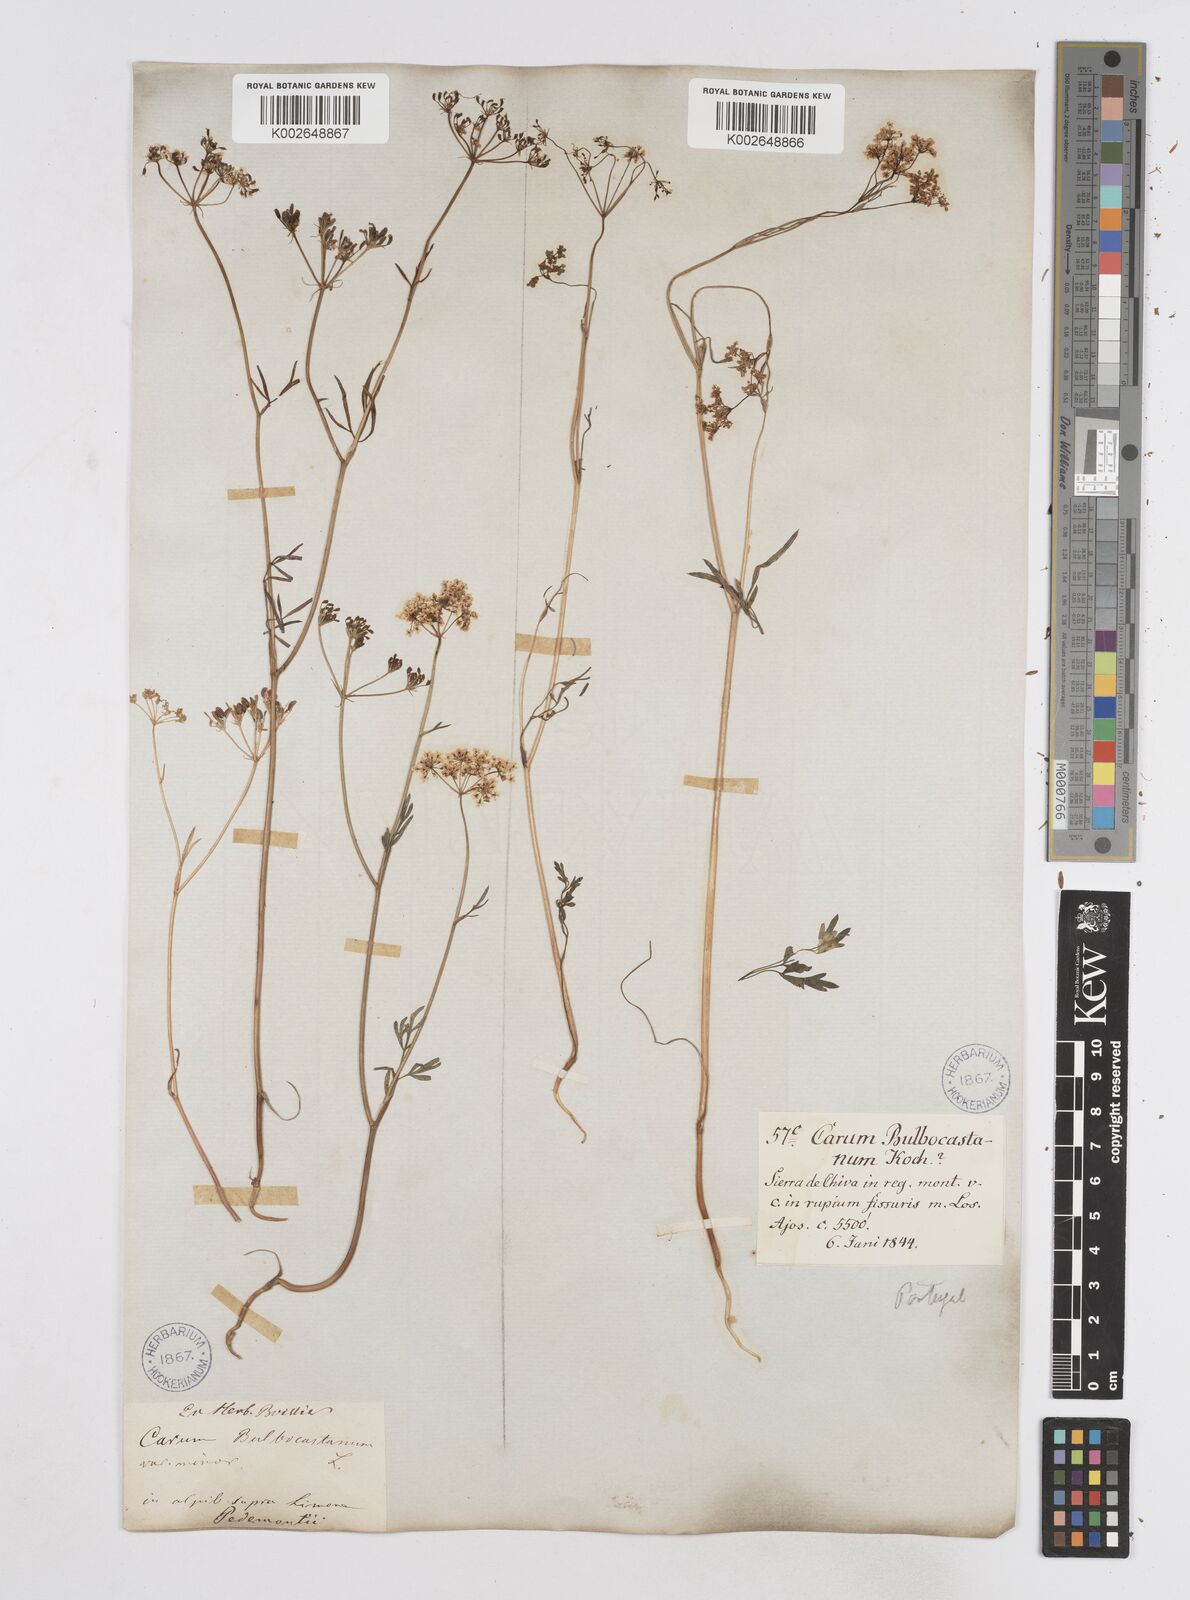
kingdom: Plantae
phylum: Tracheophyta
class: Magnoliopsida
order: Apiales
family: Apiaceae
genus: Bunium
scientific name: Bunium bulbocastanum
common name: Great pignut
